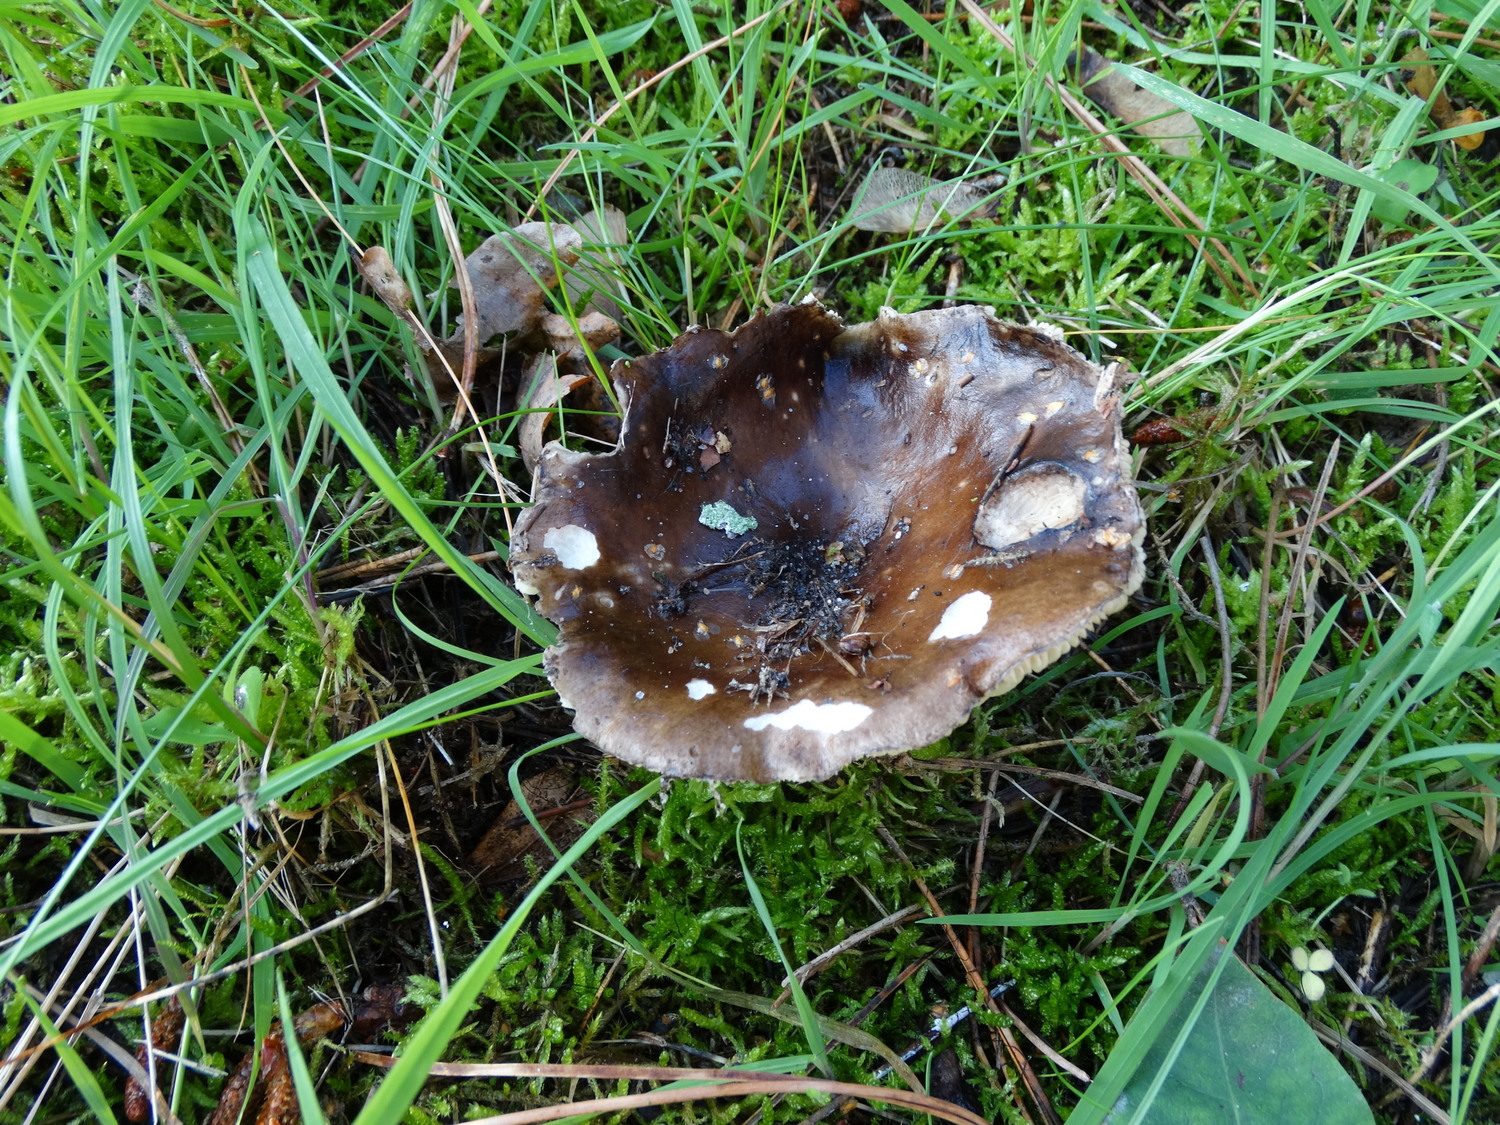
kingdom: Fungi
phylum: Basidiomycota
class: Agaricomycetes
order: Russulales
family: Russulaceae
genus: Russula
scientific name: Russula adusta
